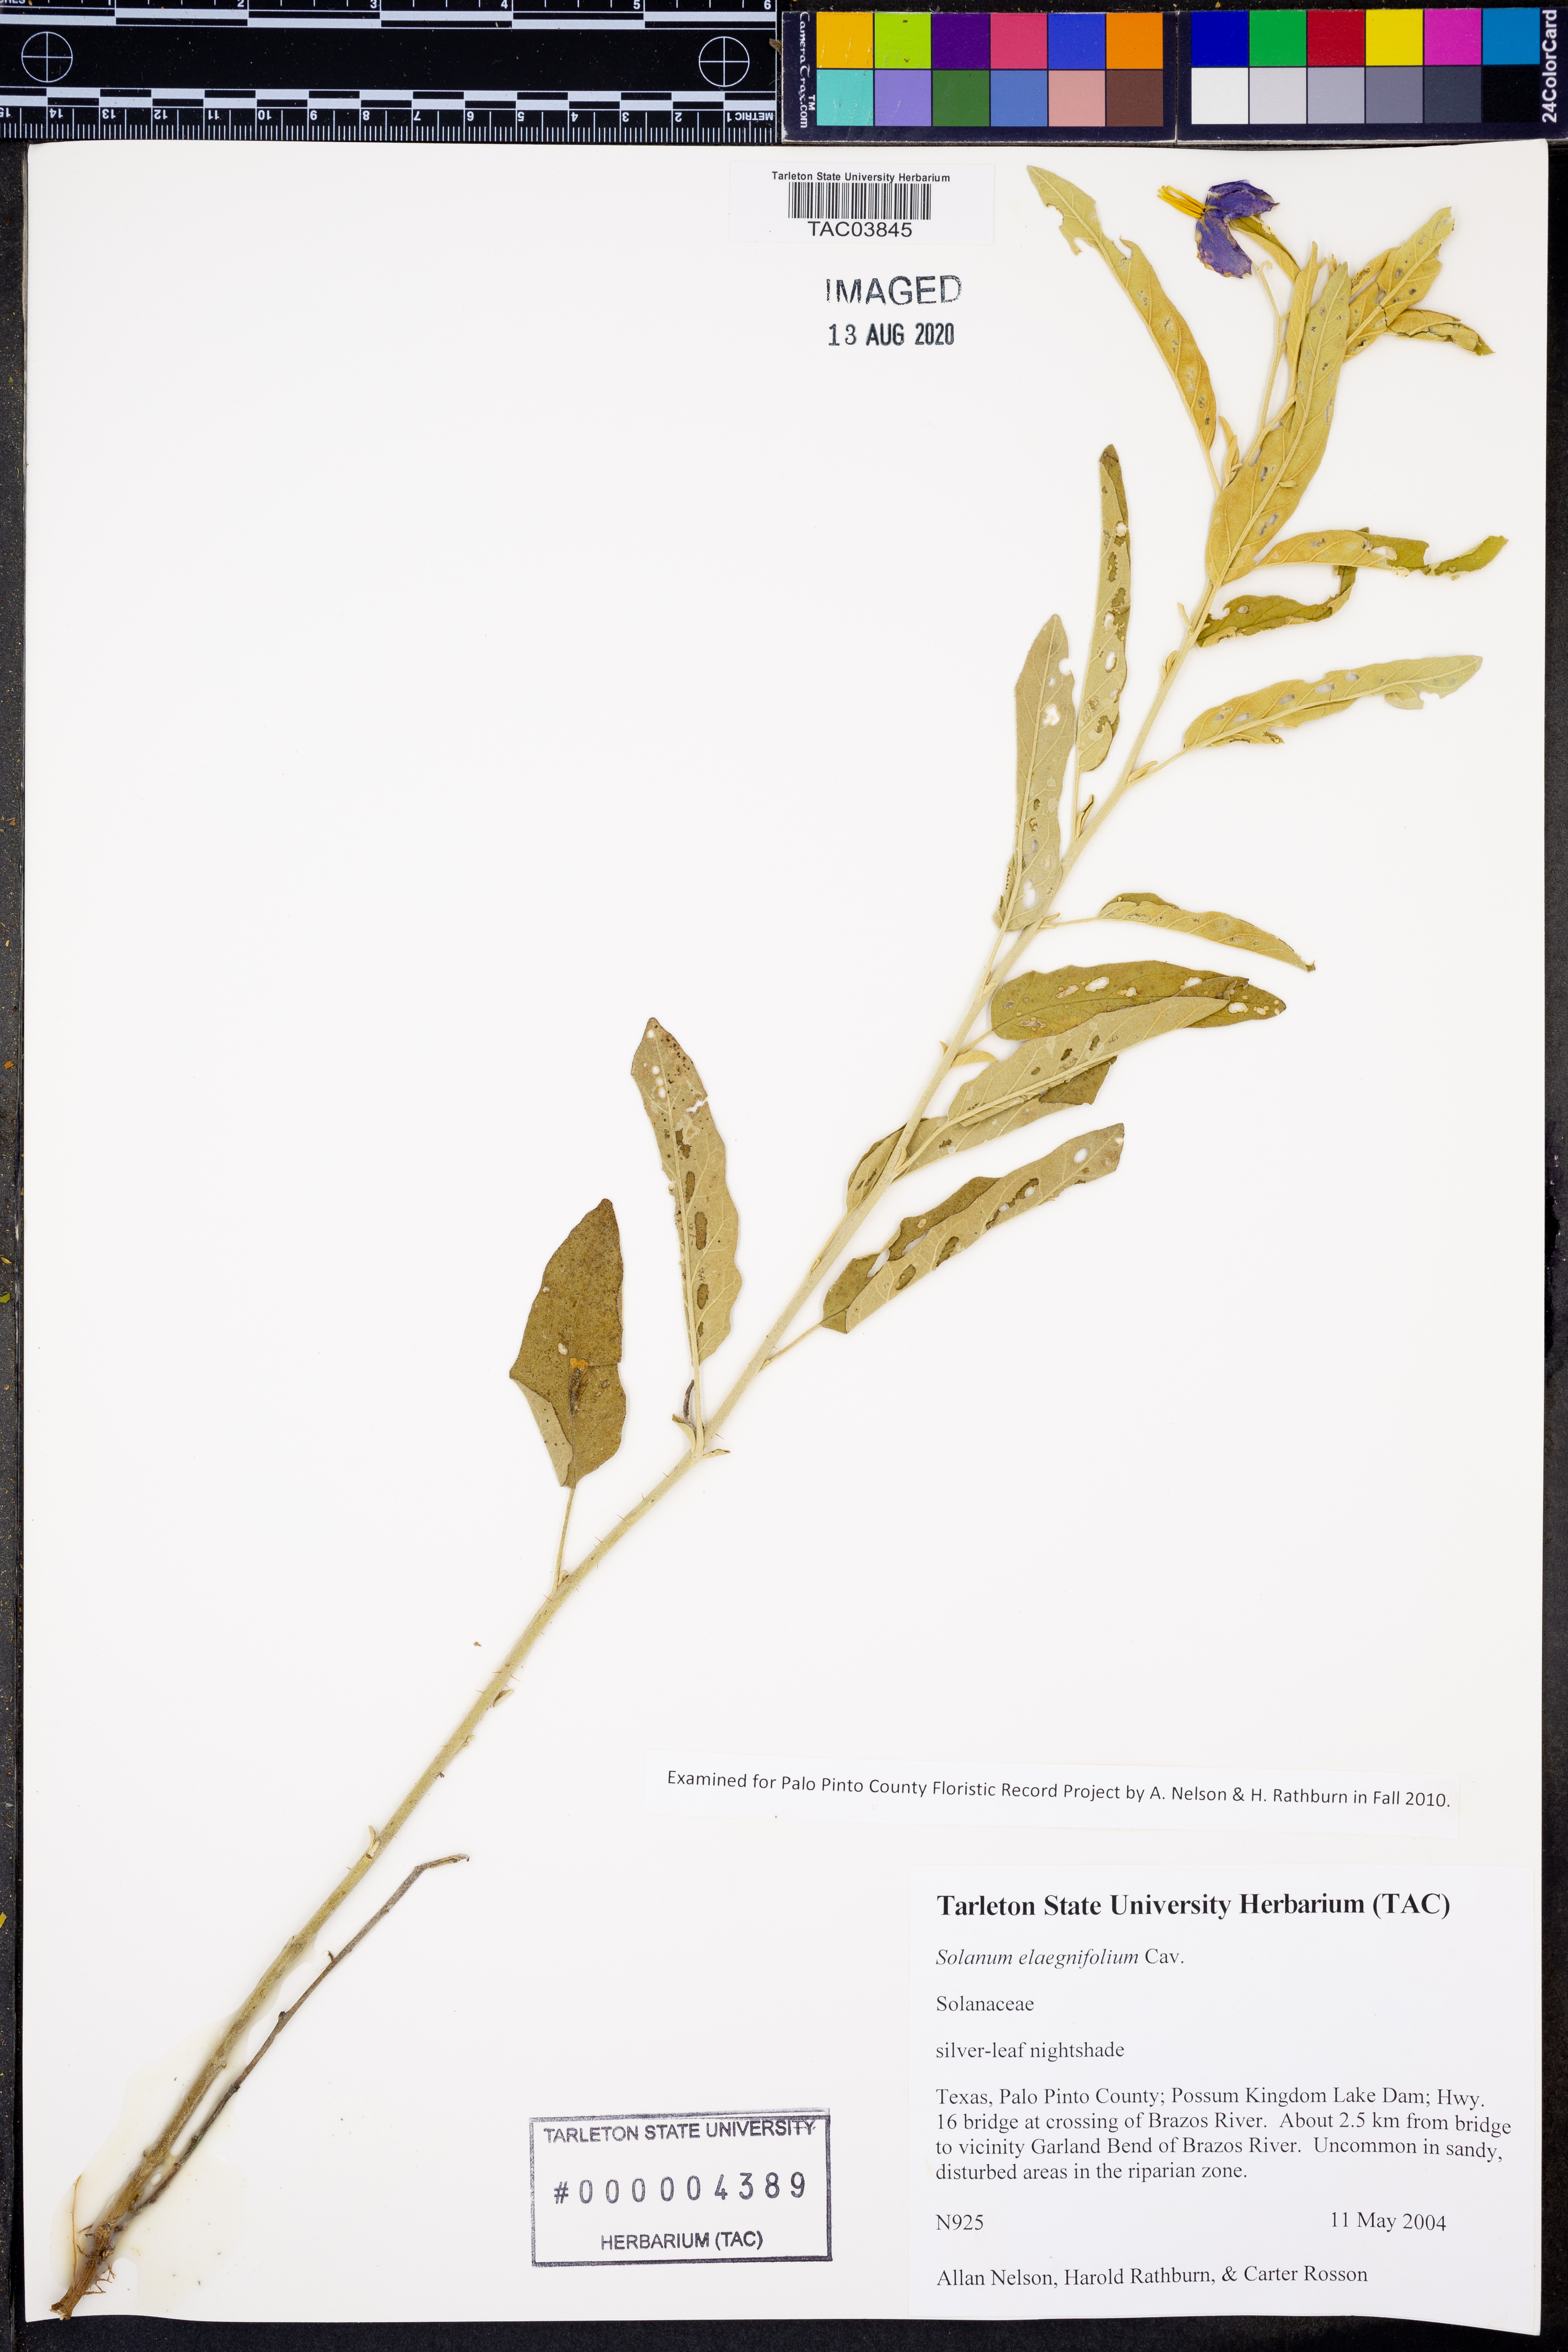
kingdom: Plantae
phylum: Tracheophyta
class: Magnoliopsida
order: Solanales
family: Solanaceae
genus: Solanum
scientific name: Solanum elaeagnifolium
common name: Silverleaf nightshade
